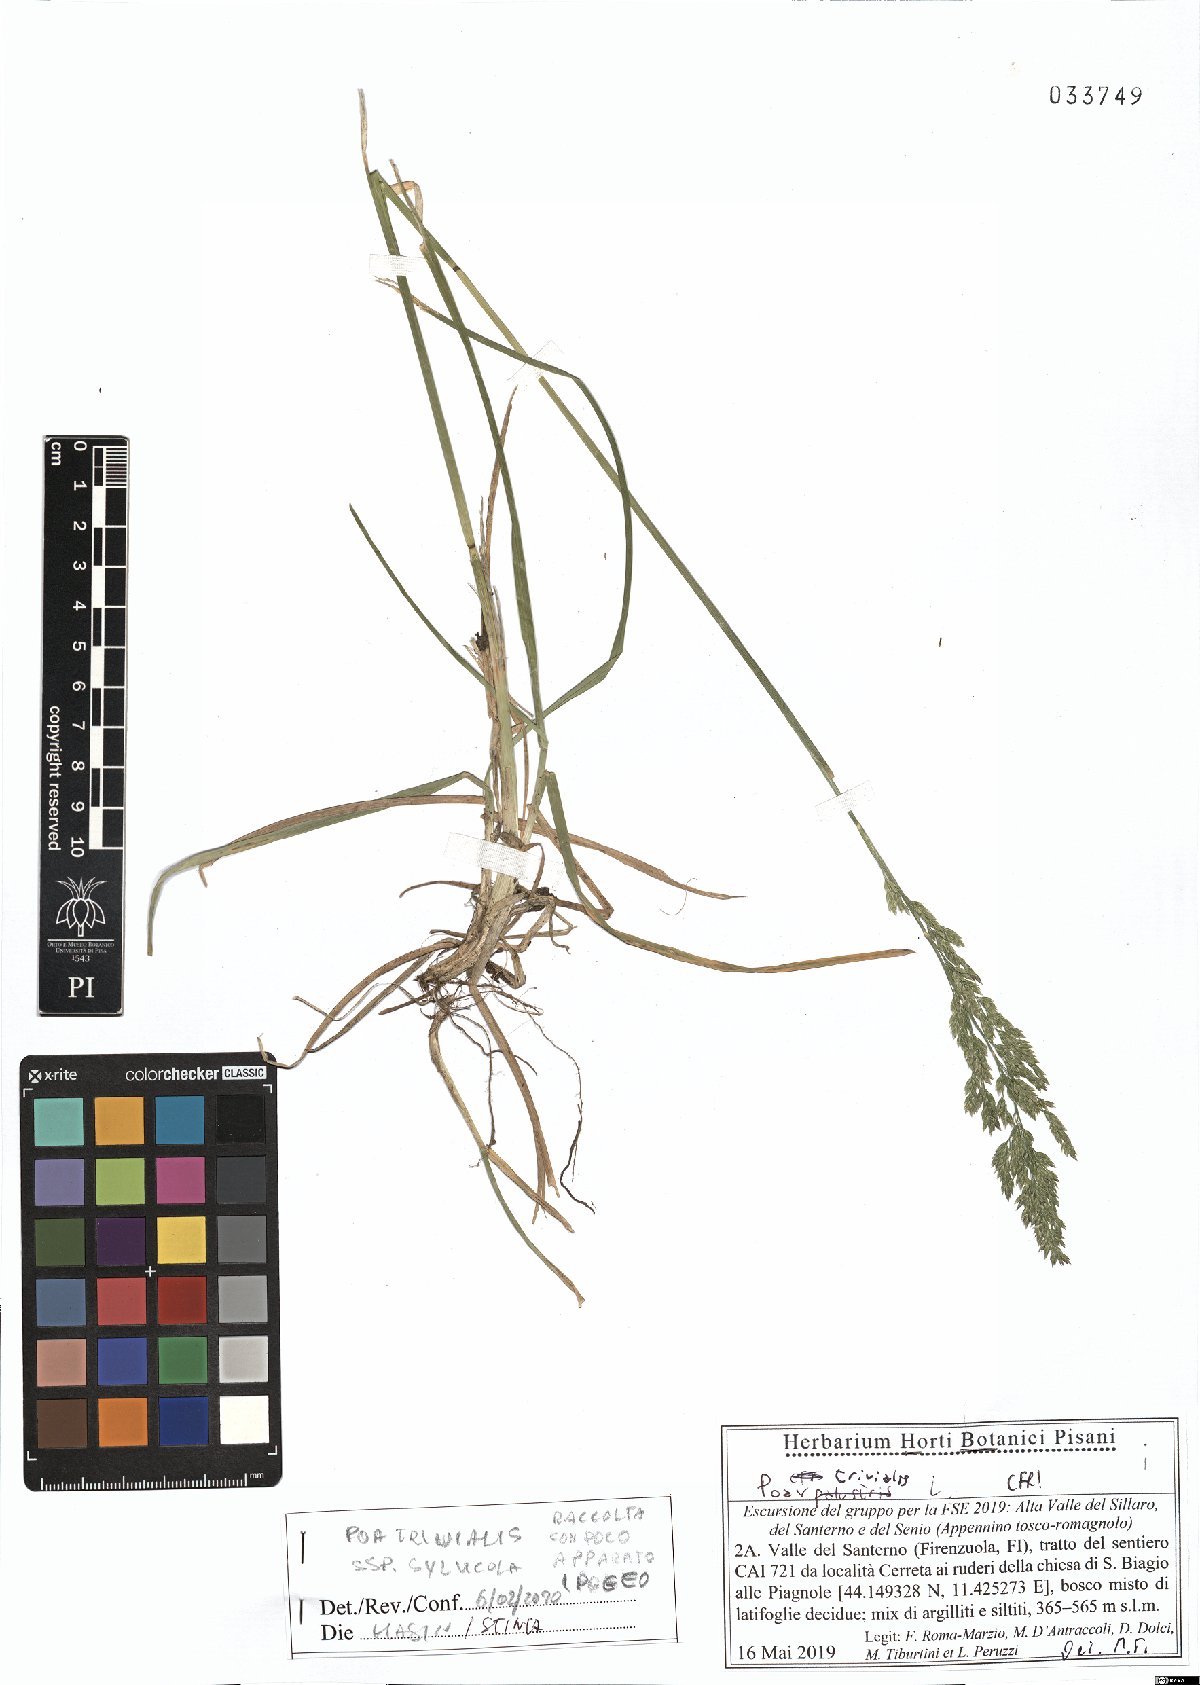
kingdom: Plantae
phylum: Tracheophyta
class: Liliopsida
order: Poales
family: Poaceae
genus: Poa
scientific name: Poa trivialis
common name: Rough bluegrass
